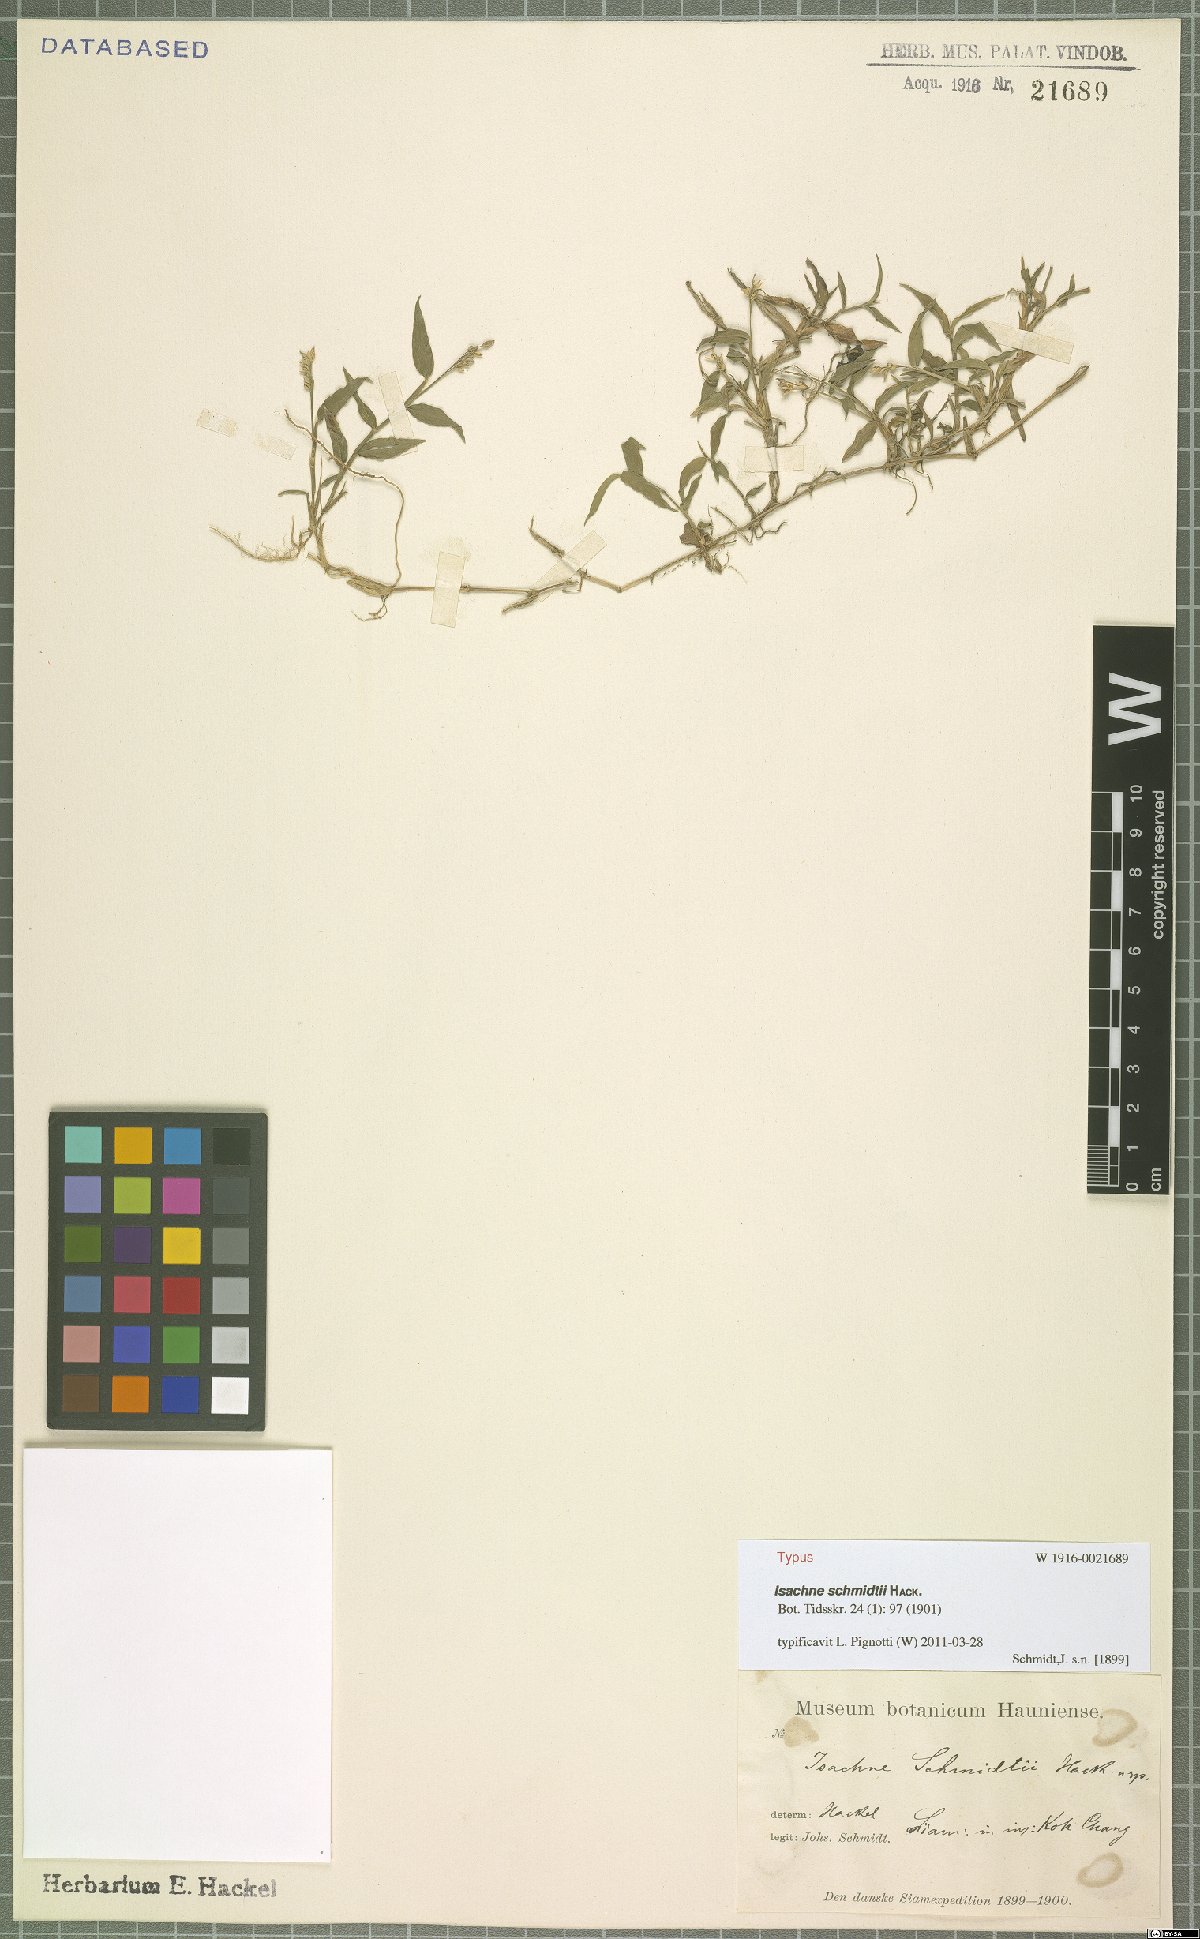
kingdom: Plantae
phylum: Tracheophyta
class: Liliopsida
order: Poales
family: Poaceae
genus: Isachne
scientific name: Isachne schmidtii
